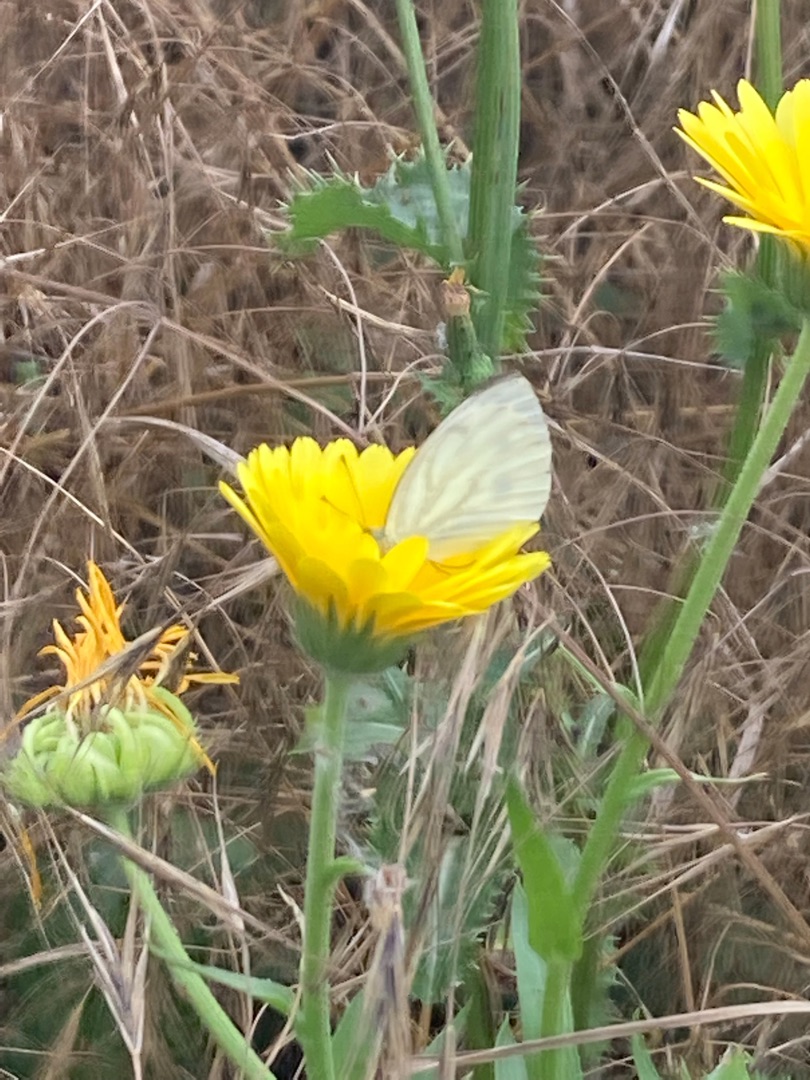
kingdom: Animalia
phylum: Arthropoda
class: Insecta
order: Lepidoptera
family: Pieridae
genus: Pieris
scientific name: Pieris napi
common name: Grønåret kålsommerfugl
